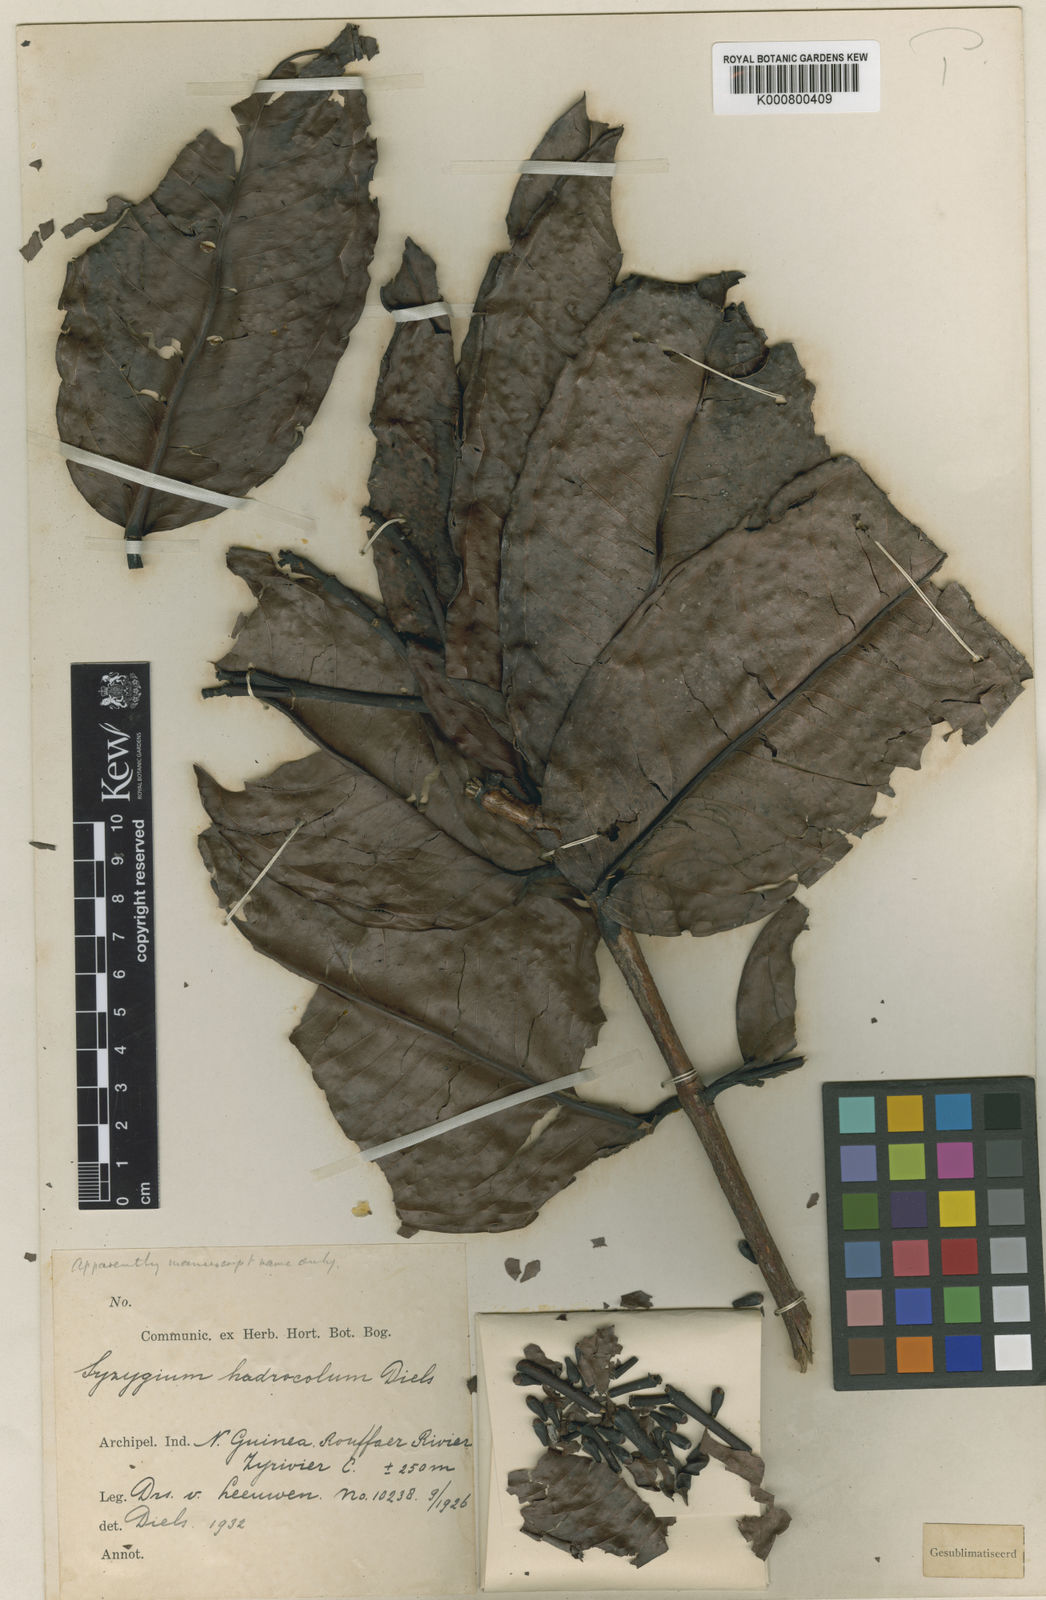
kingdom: Plantae
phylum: Tracheophyta
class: Magnoliopsida
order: Myrtales
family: Myrtaceae
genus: Syzygium
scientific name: Syzygium
